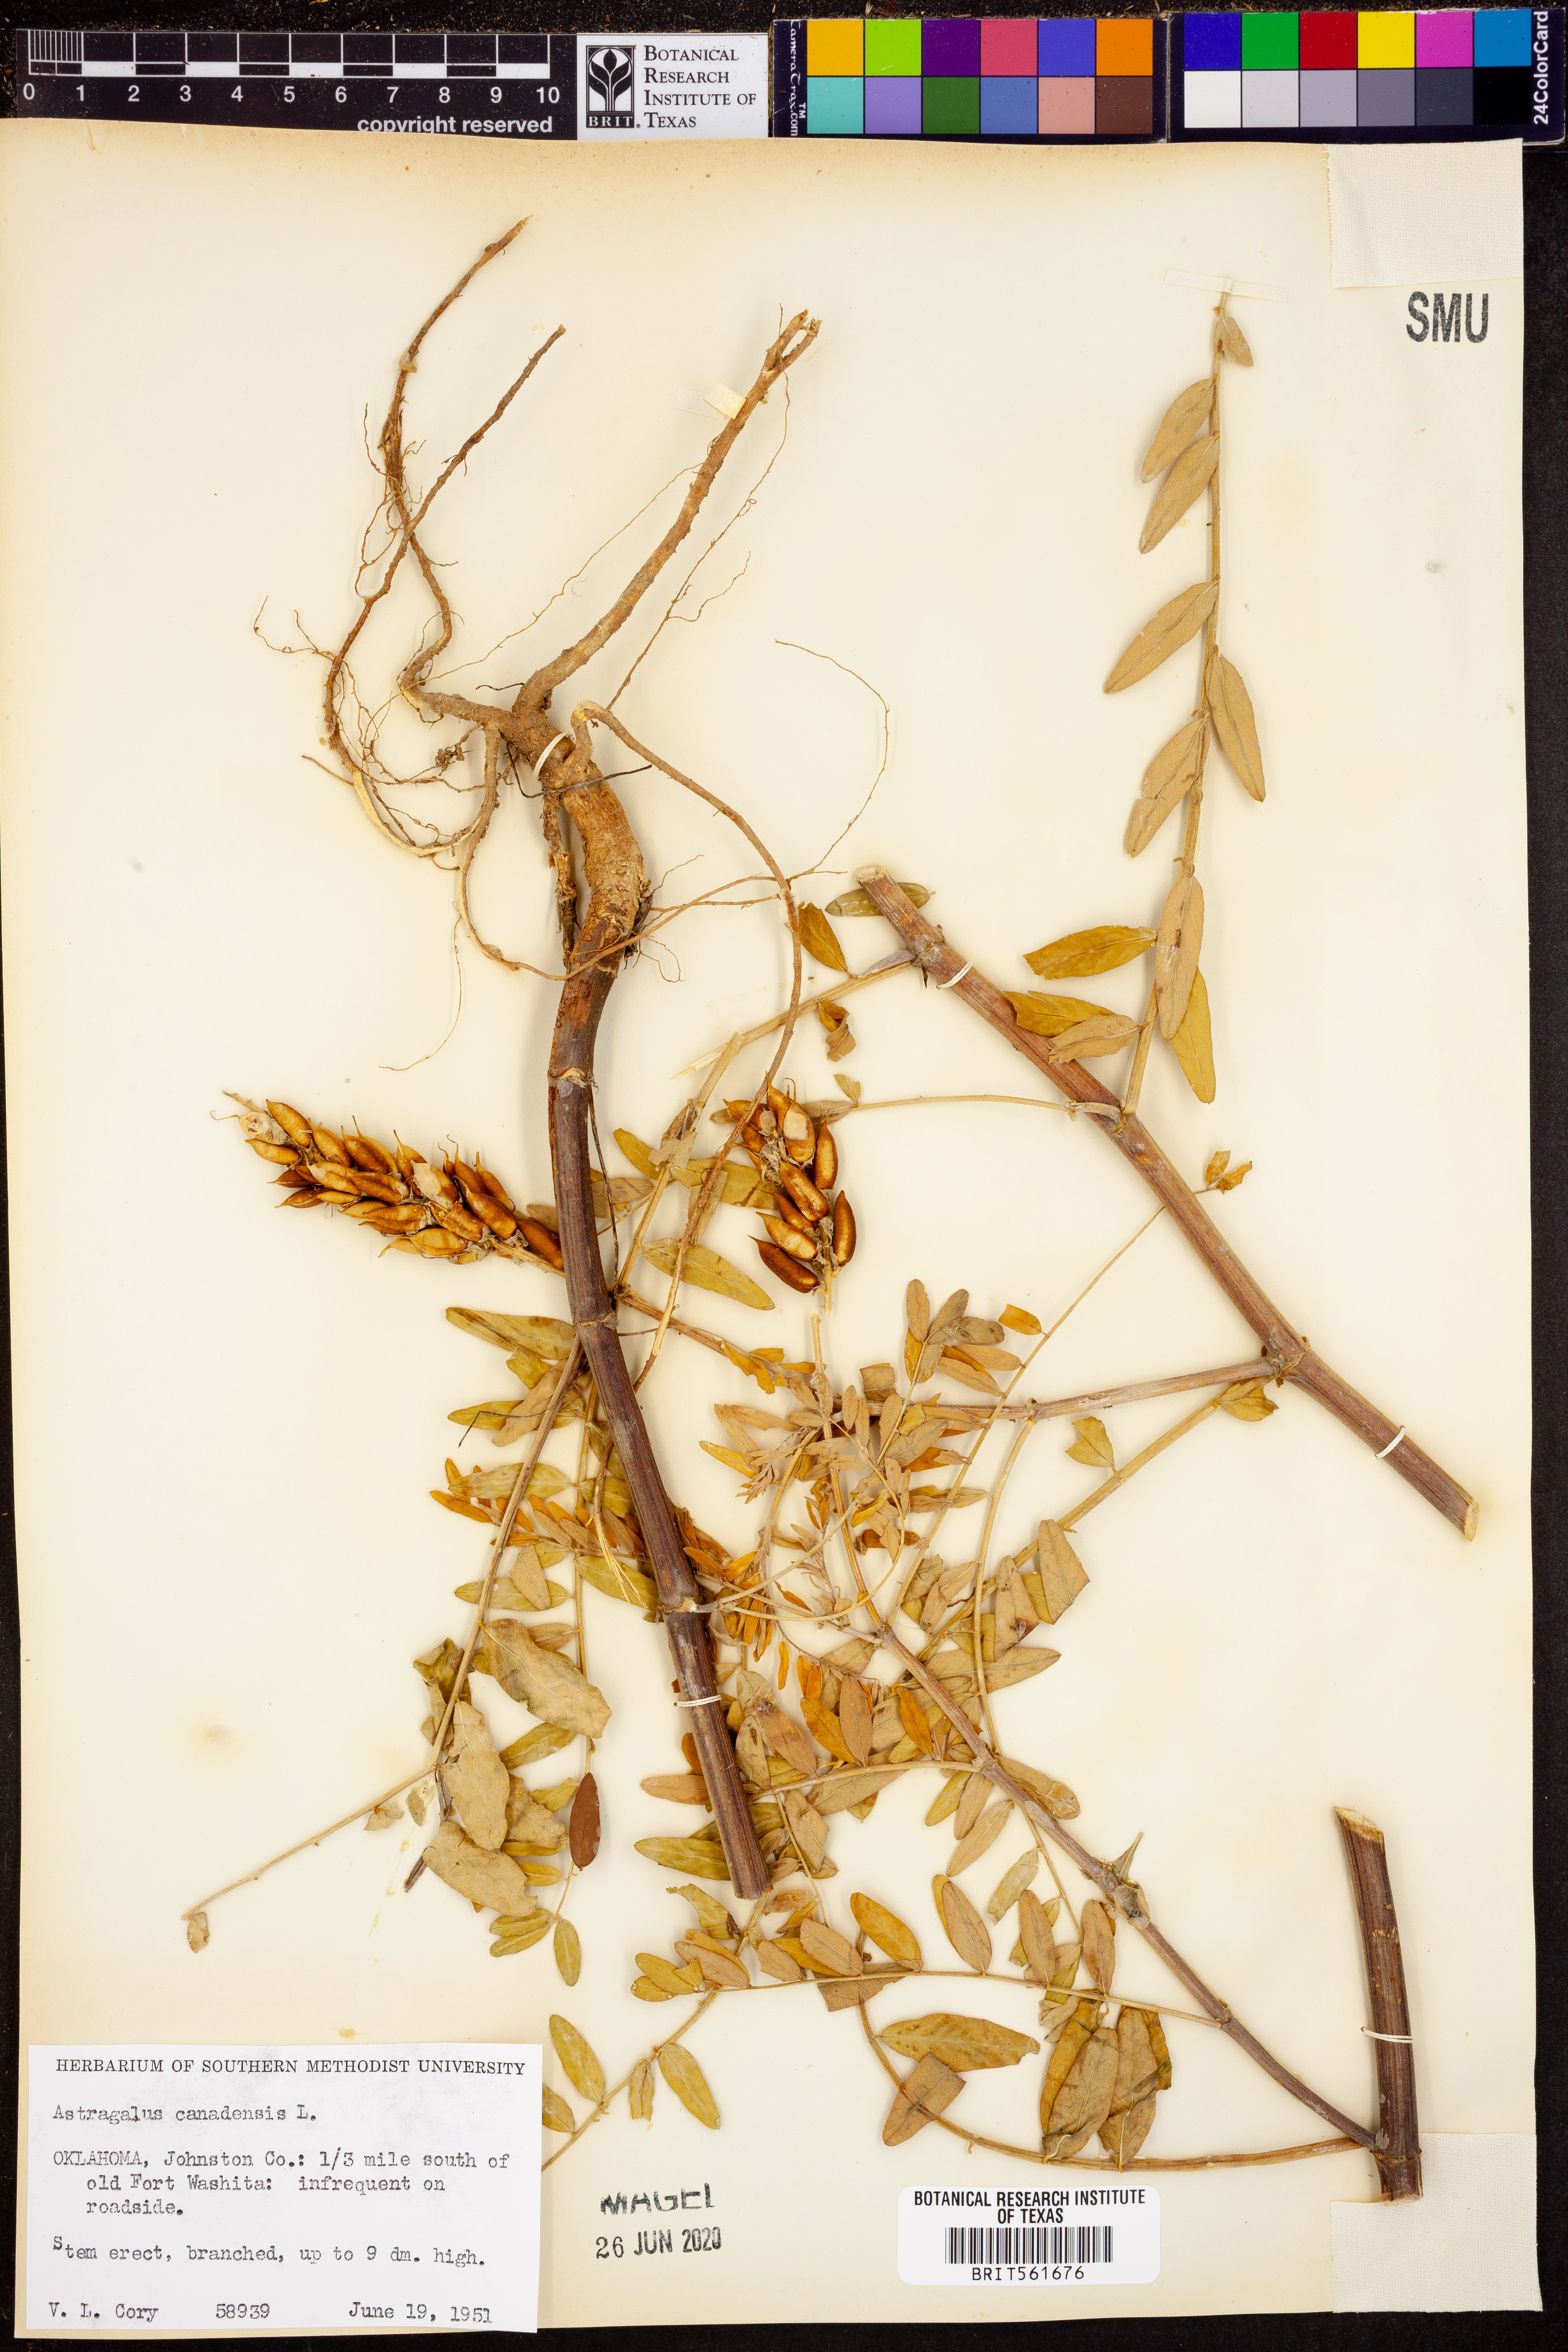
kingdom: Plantae
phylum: Tracheophyta
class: Magnoliopsida
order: Fabales
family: Fabaceae
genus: Astragalus
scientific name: Astragalus canadensis
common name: Canada milk-vetch
